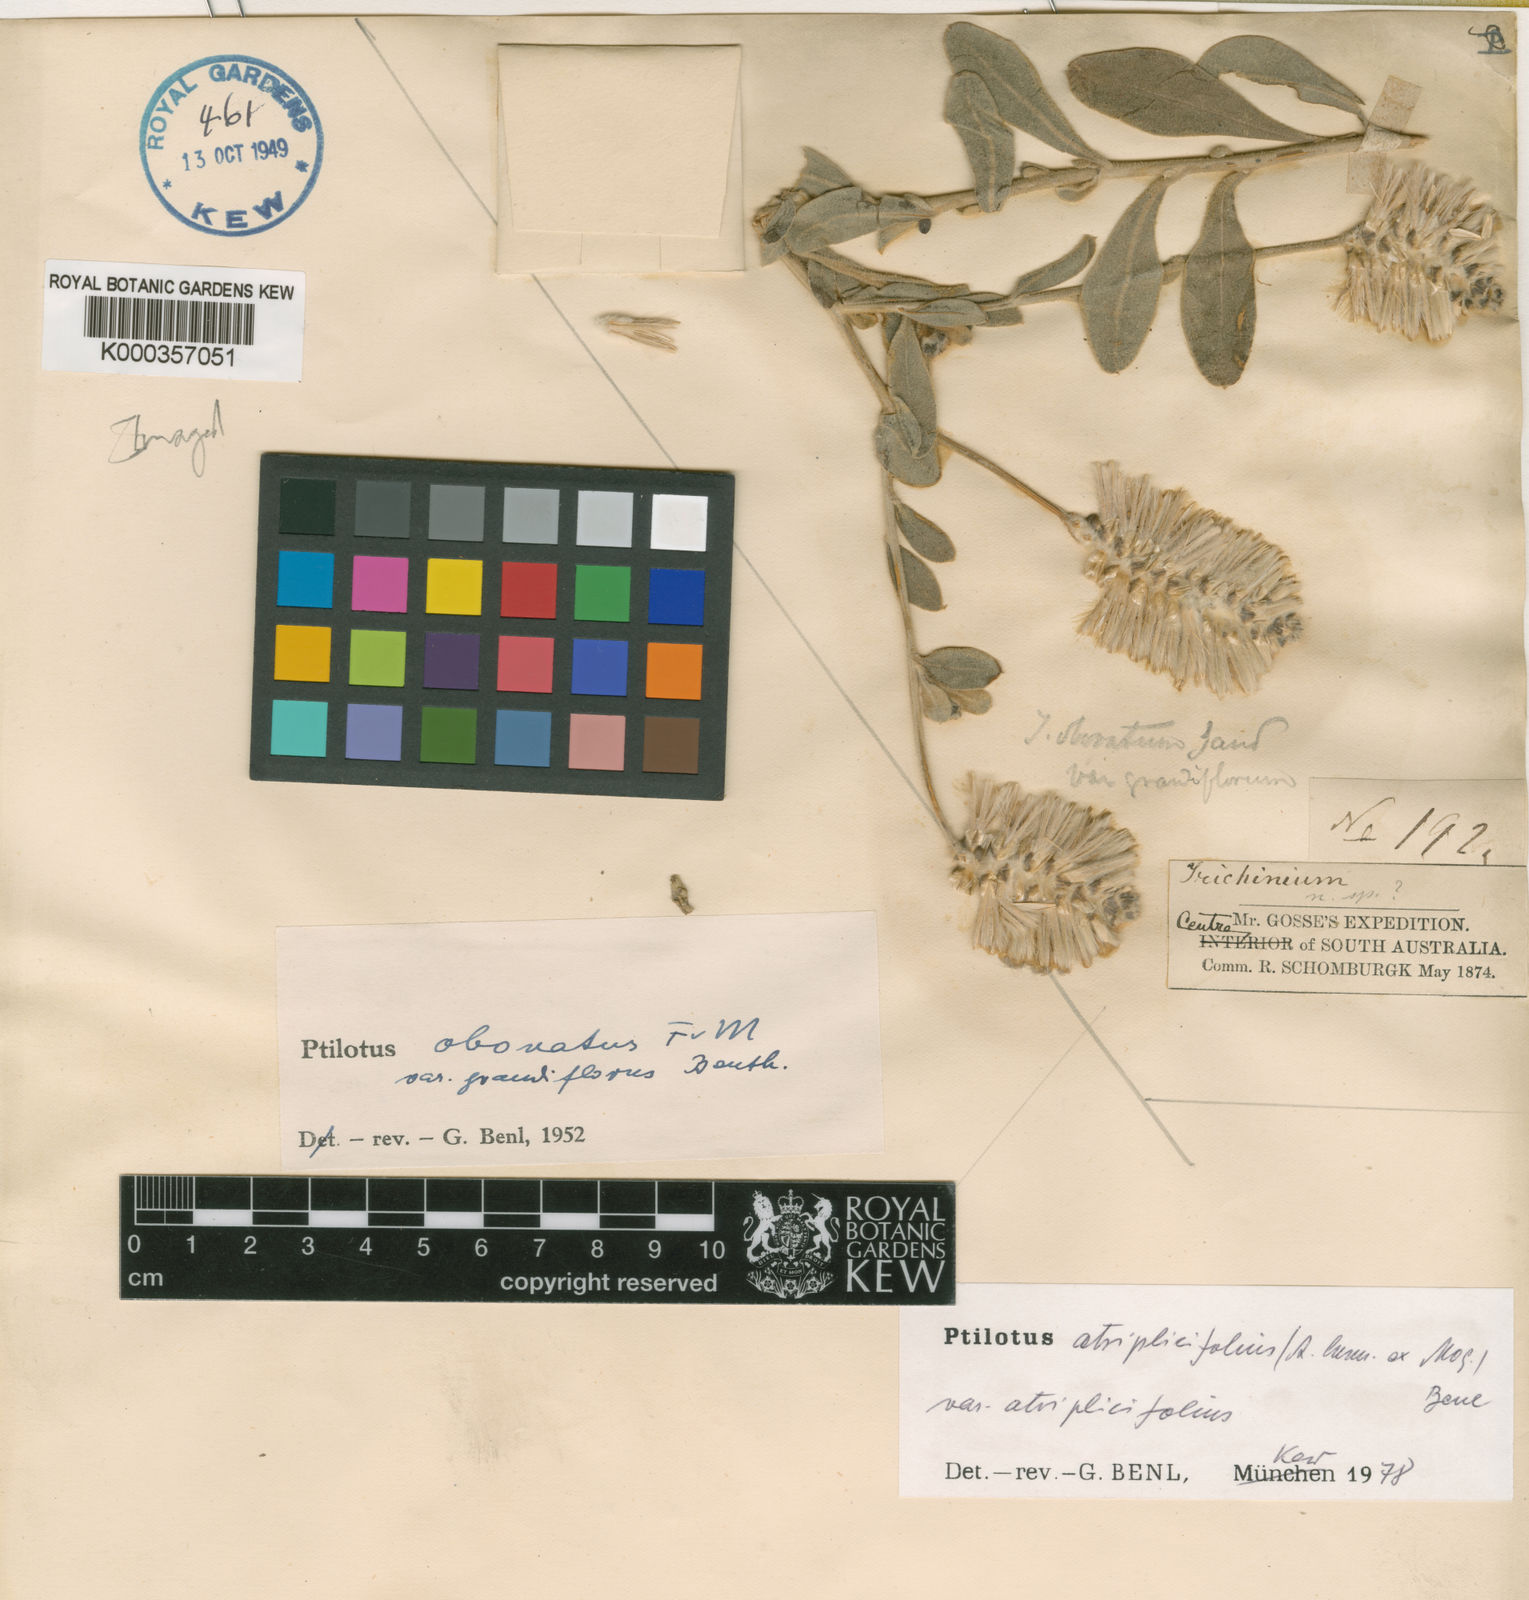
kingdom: Plantae
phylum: Tracheophyta
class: Magnoliopsida
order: Caryophyllales
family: Amaranthaceae
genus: Ptilotus
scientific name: Ptilotus
